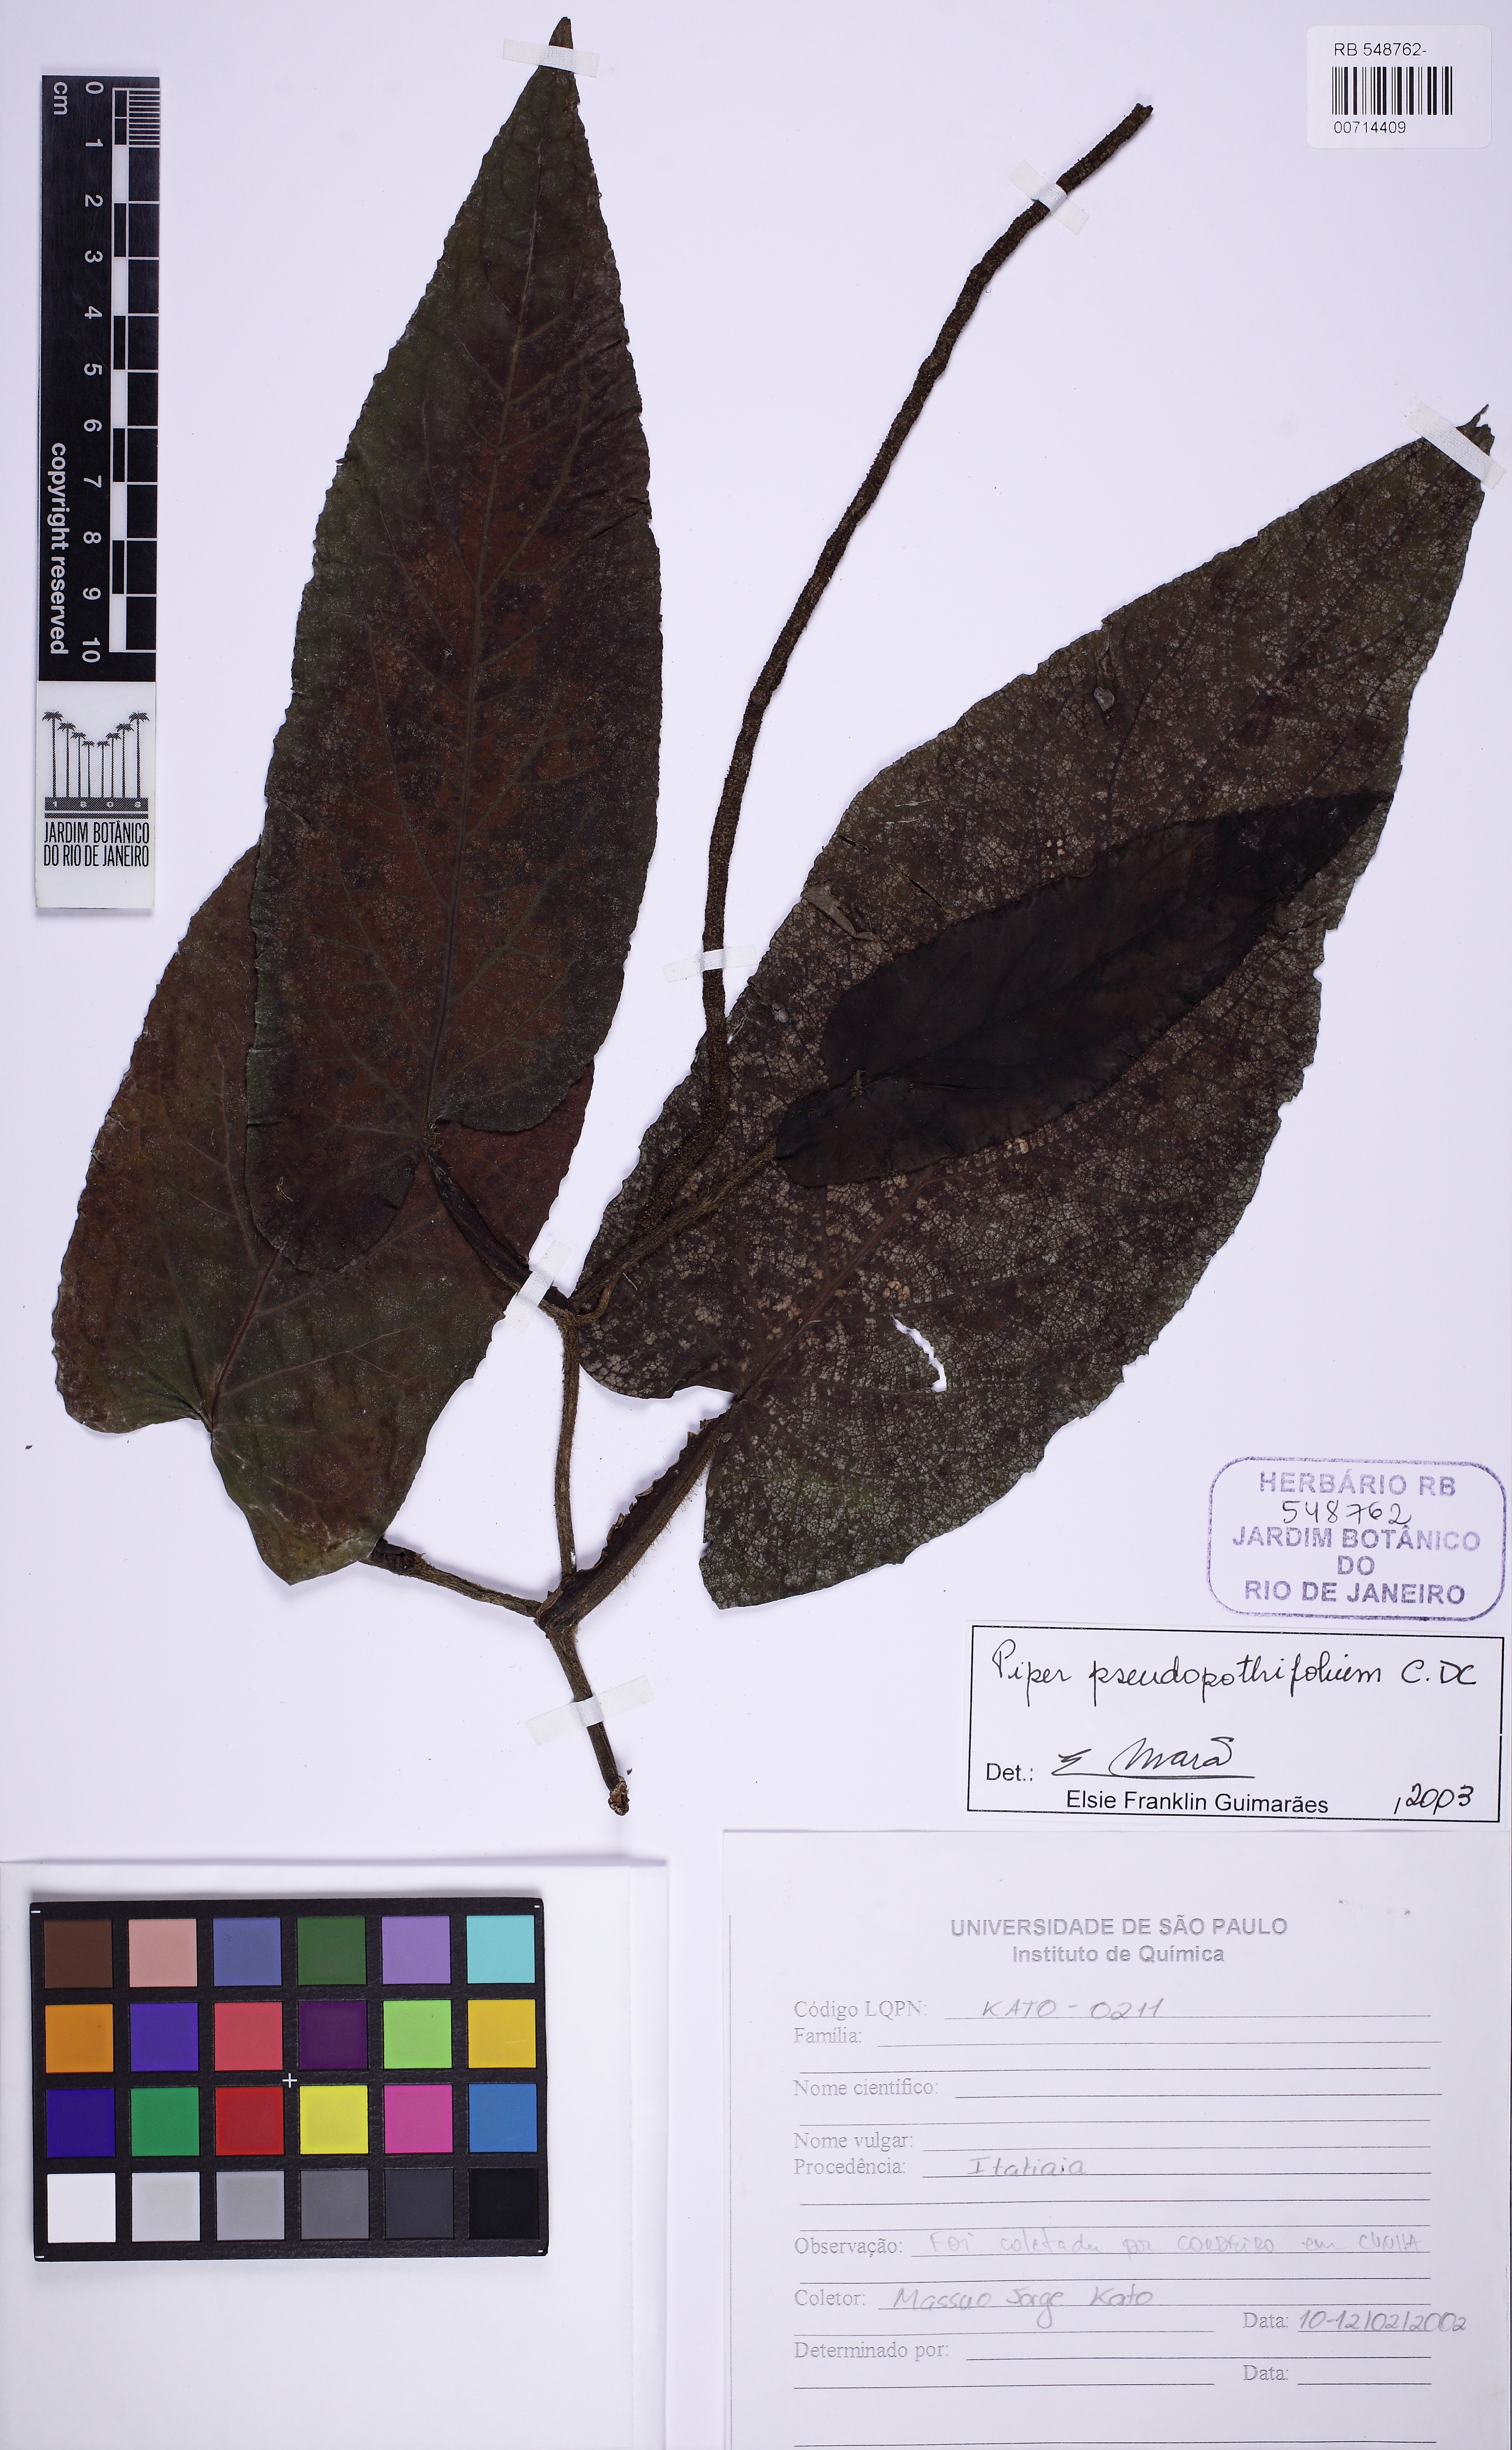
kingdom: Plantae
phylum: Tracheophyta
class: Magnoliopsida
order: Piperales
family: Piperaceae
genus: Piper
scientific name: Piper pseudoarboreum
